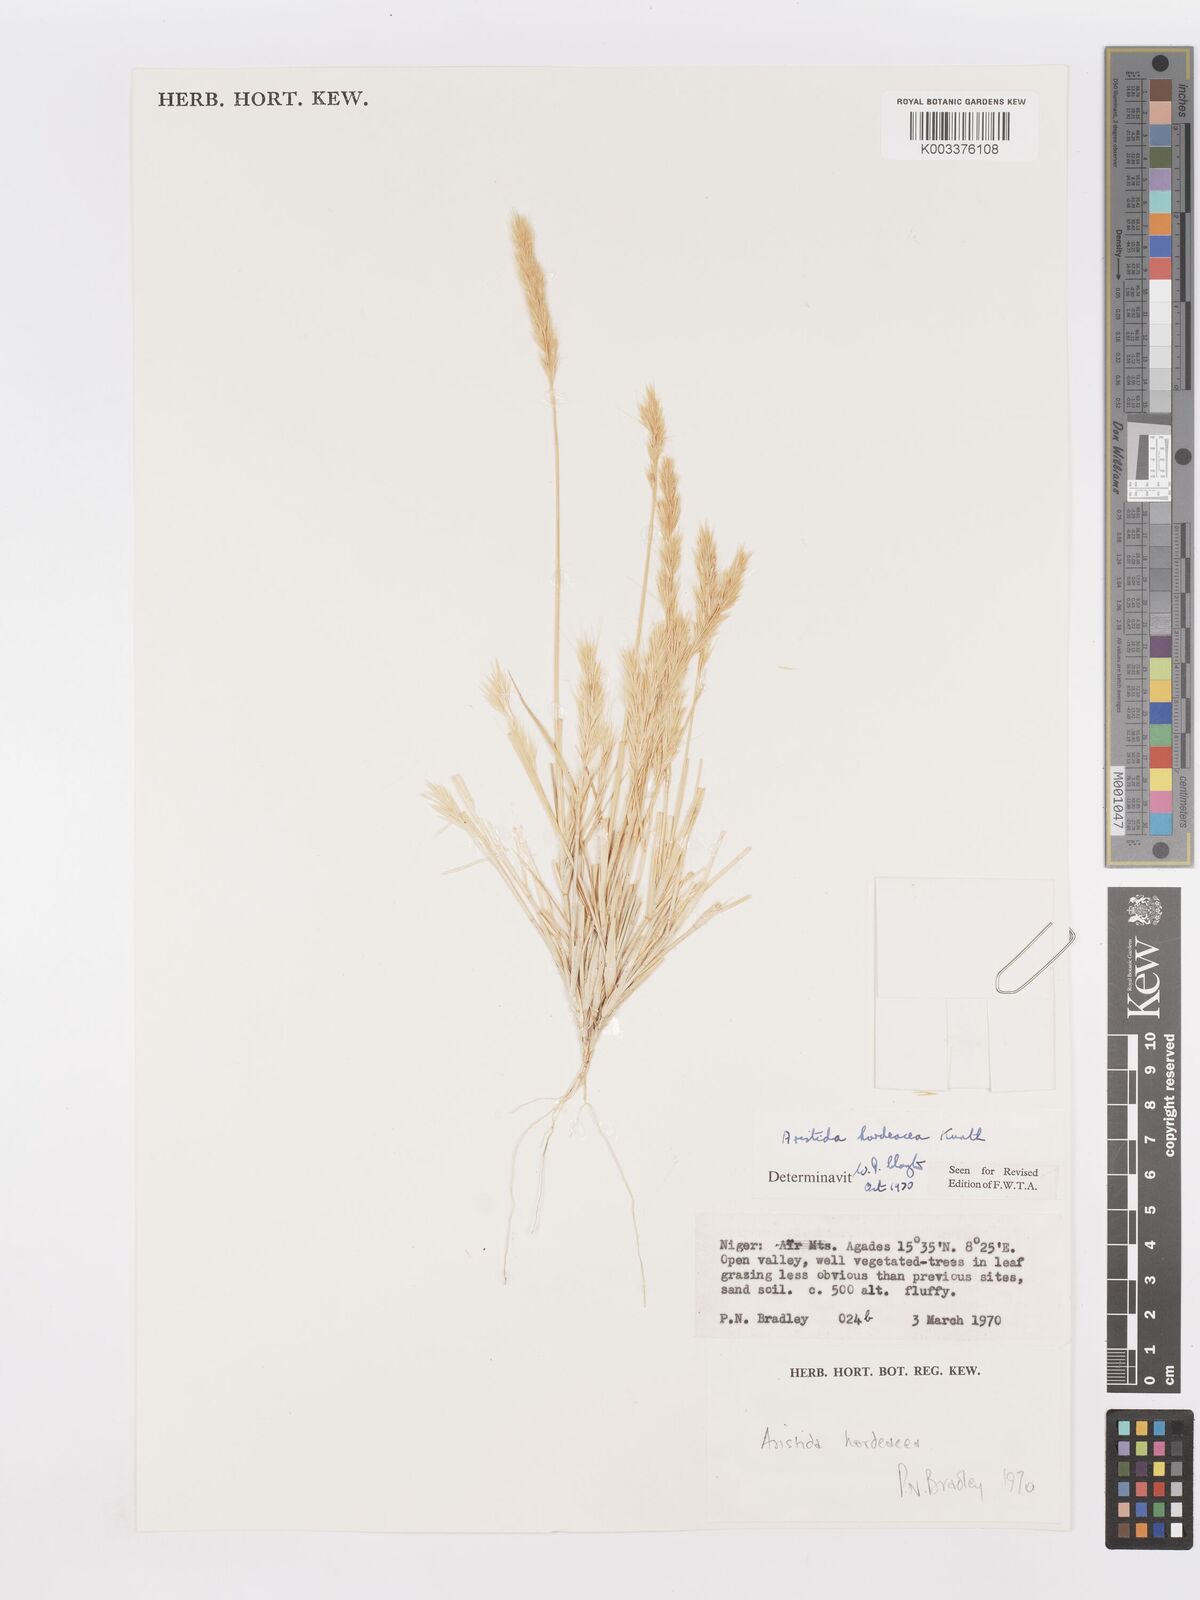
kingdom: Plantae
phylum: Tracheophyta
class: Liliopsida
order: Poales
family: Poaceae
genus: Aristida
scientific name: Aristida hordeacea
